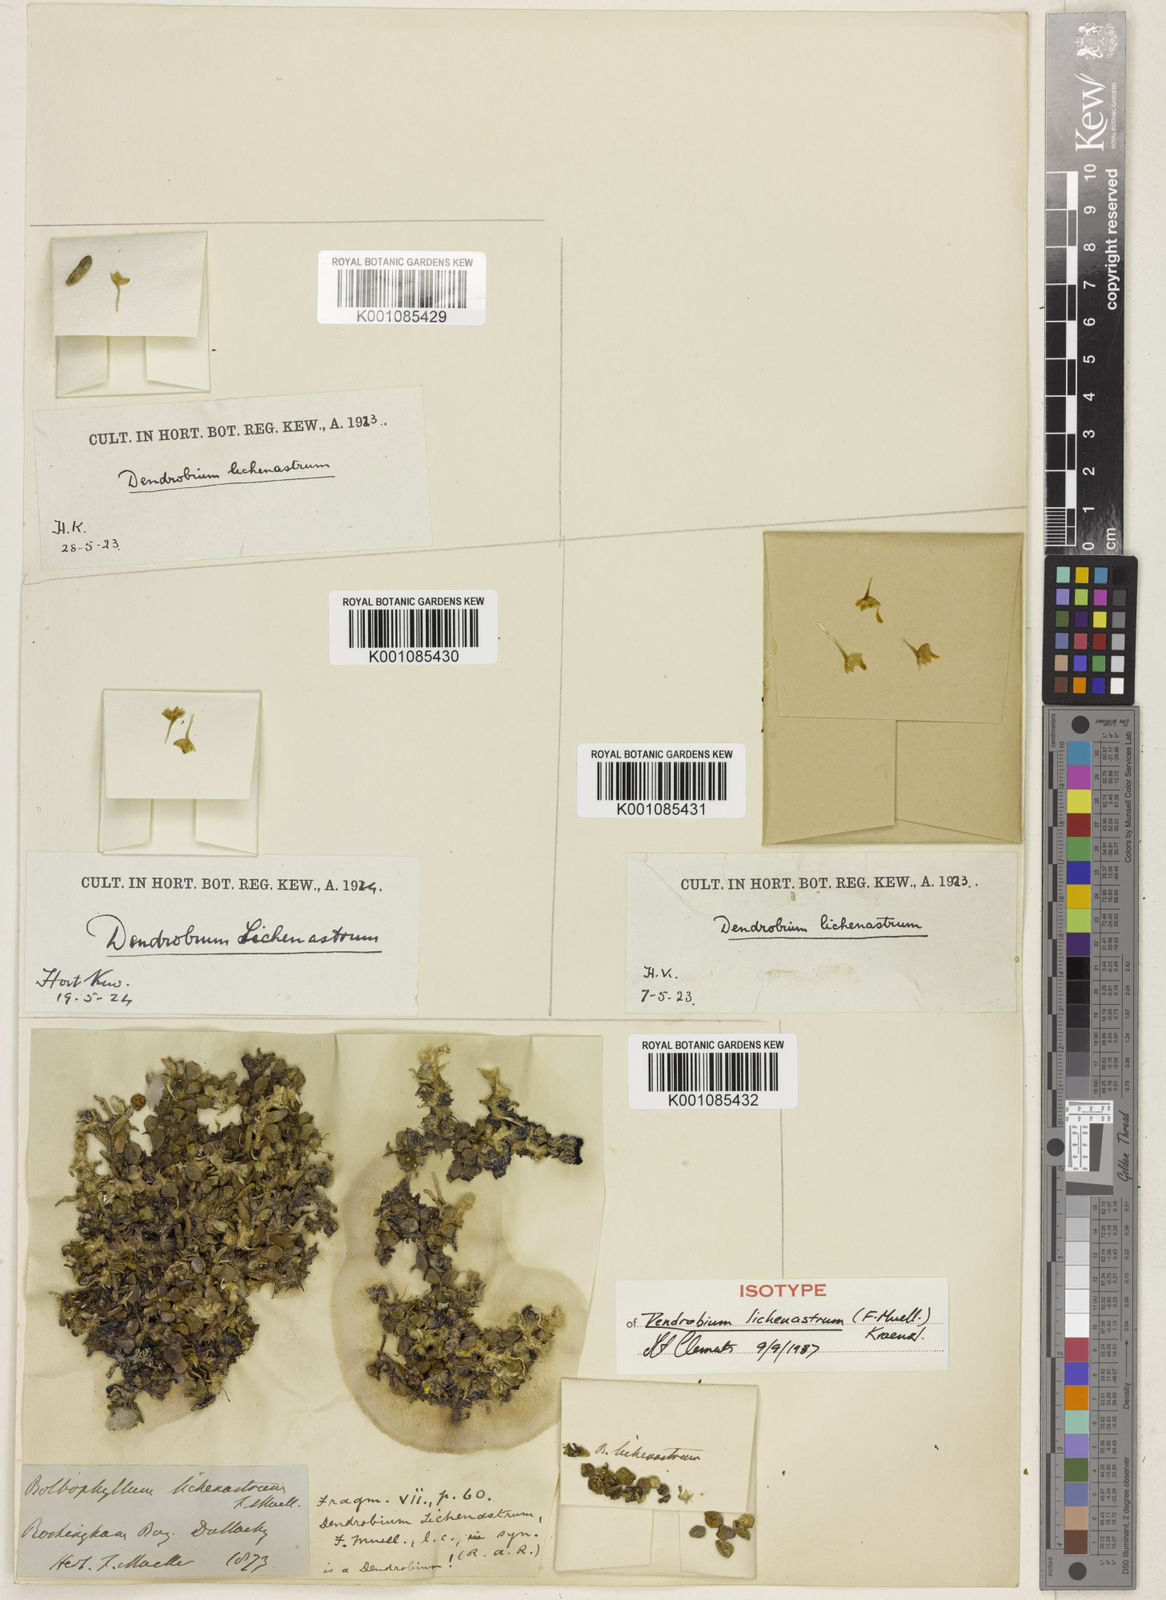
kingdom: Plantae
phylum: Tracheophyta
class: Liliopsida
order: Asparagales
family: Orchidaceae
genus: Dendrobium
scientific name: Dendrobium
